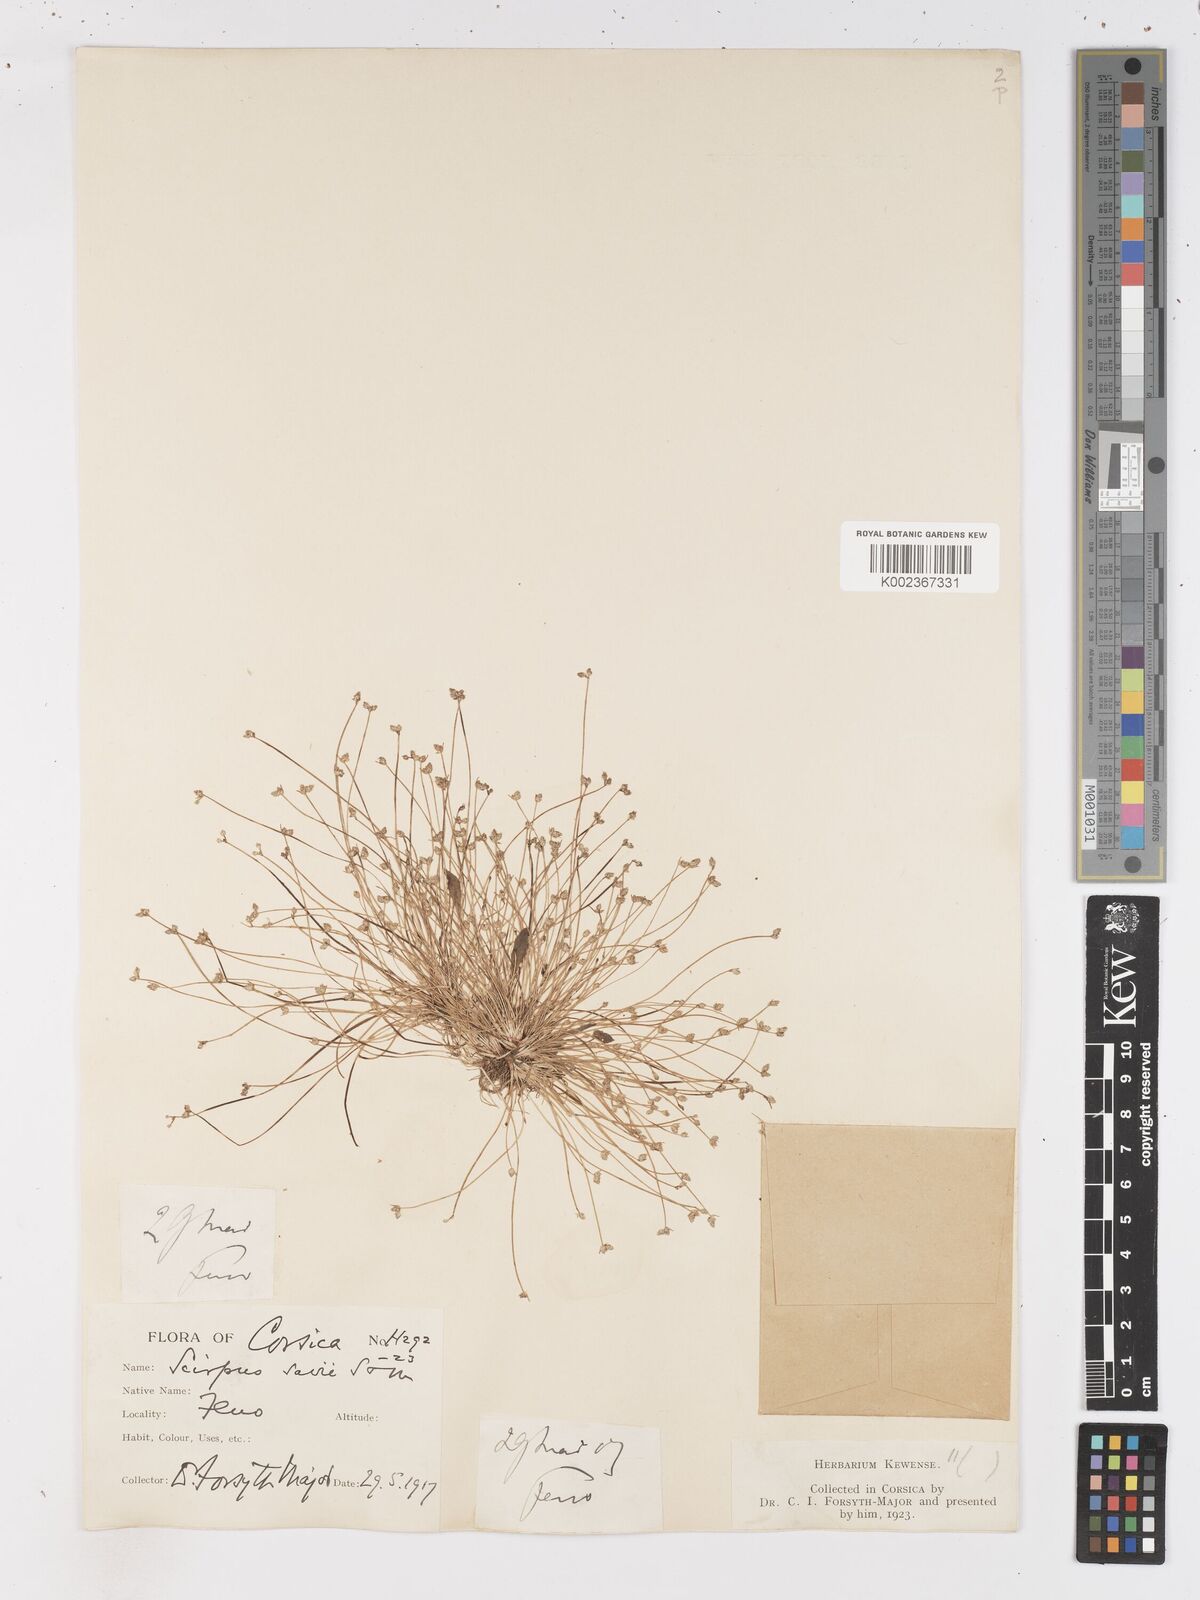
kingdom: Plantae
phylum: Tracheophyta
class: Liliopsida
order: Poales
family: Cyperaceae
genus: Isolepis
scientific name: Isolepis cernua
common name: Slender club-rush
